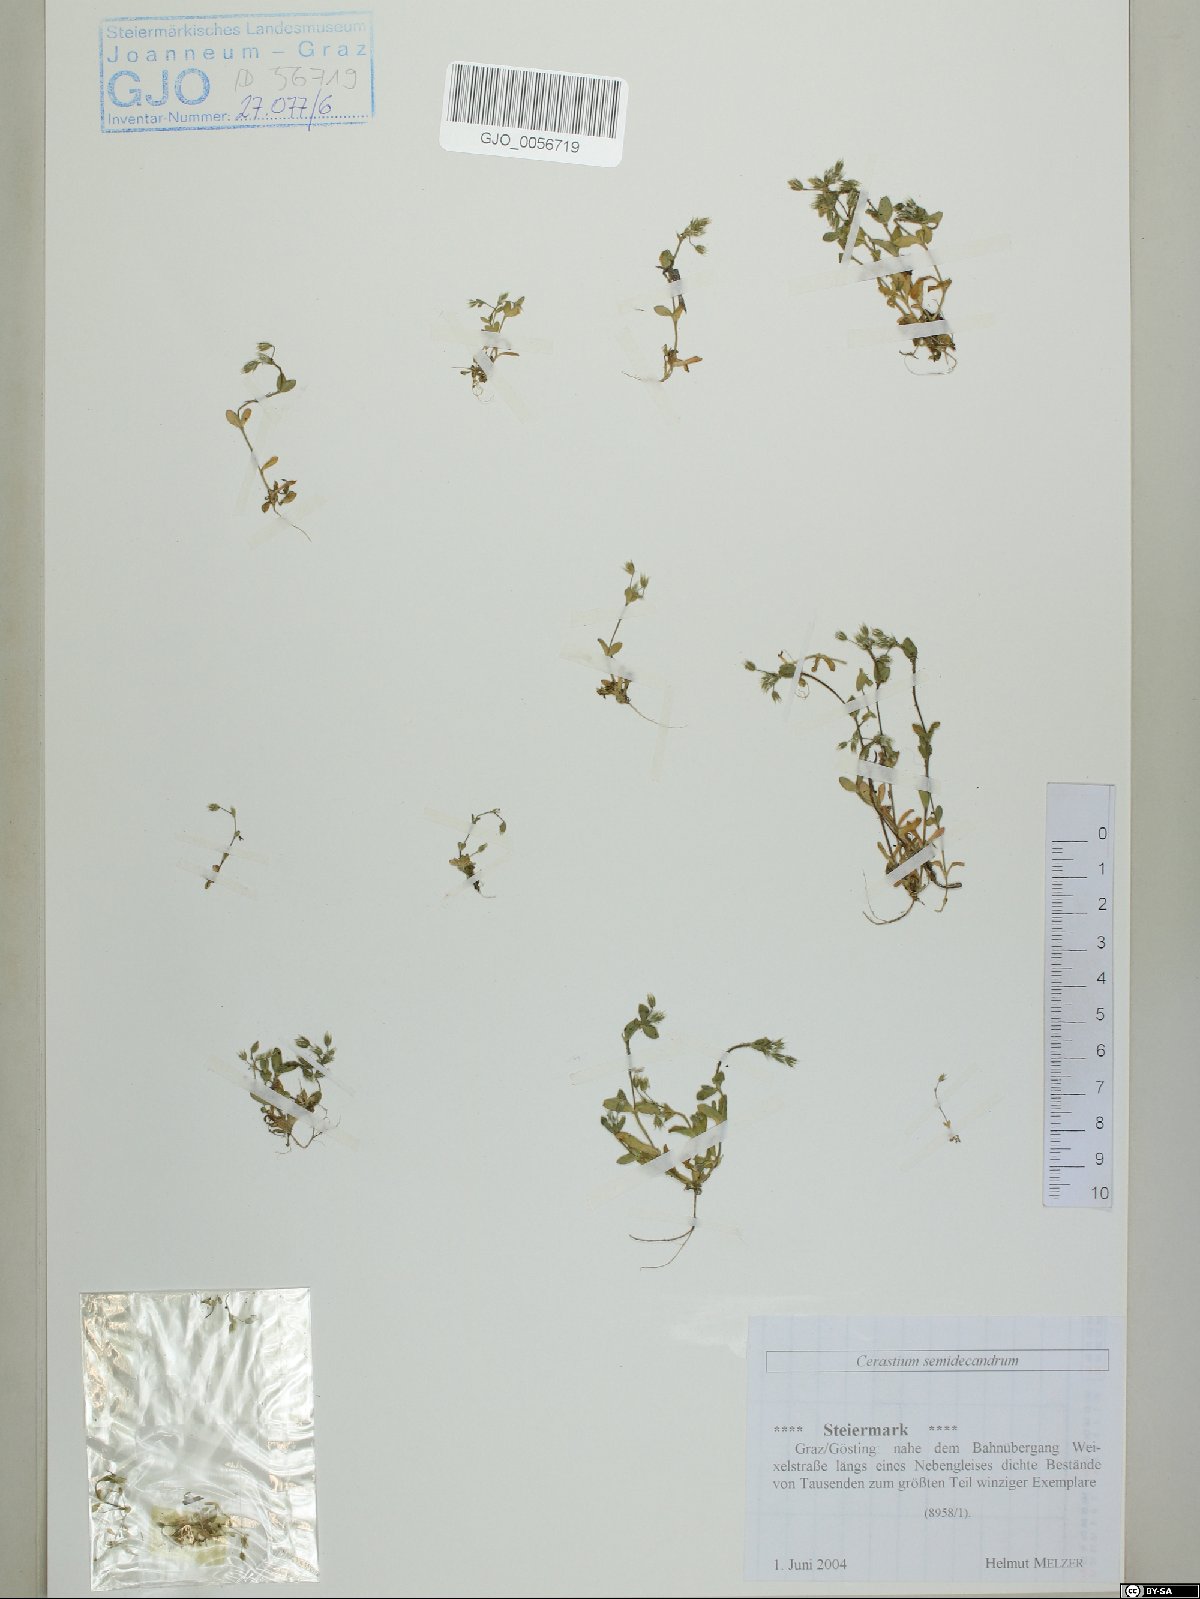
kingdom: Plantae
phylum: Tracheophyta
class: Magnoliopsida
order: Caryophyllales
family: Caryophyllaceae
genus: Cerastium
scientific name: Cerastium semidecandrum
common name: Little mouse-ear
